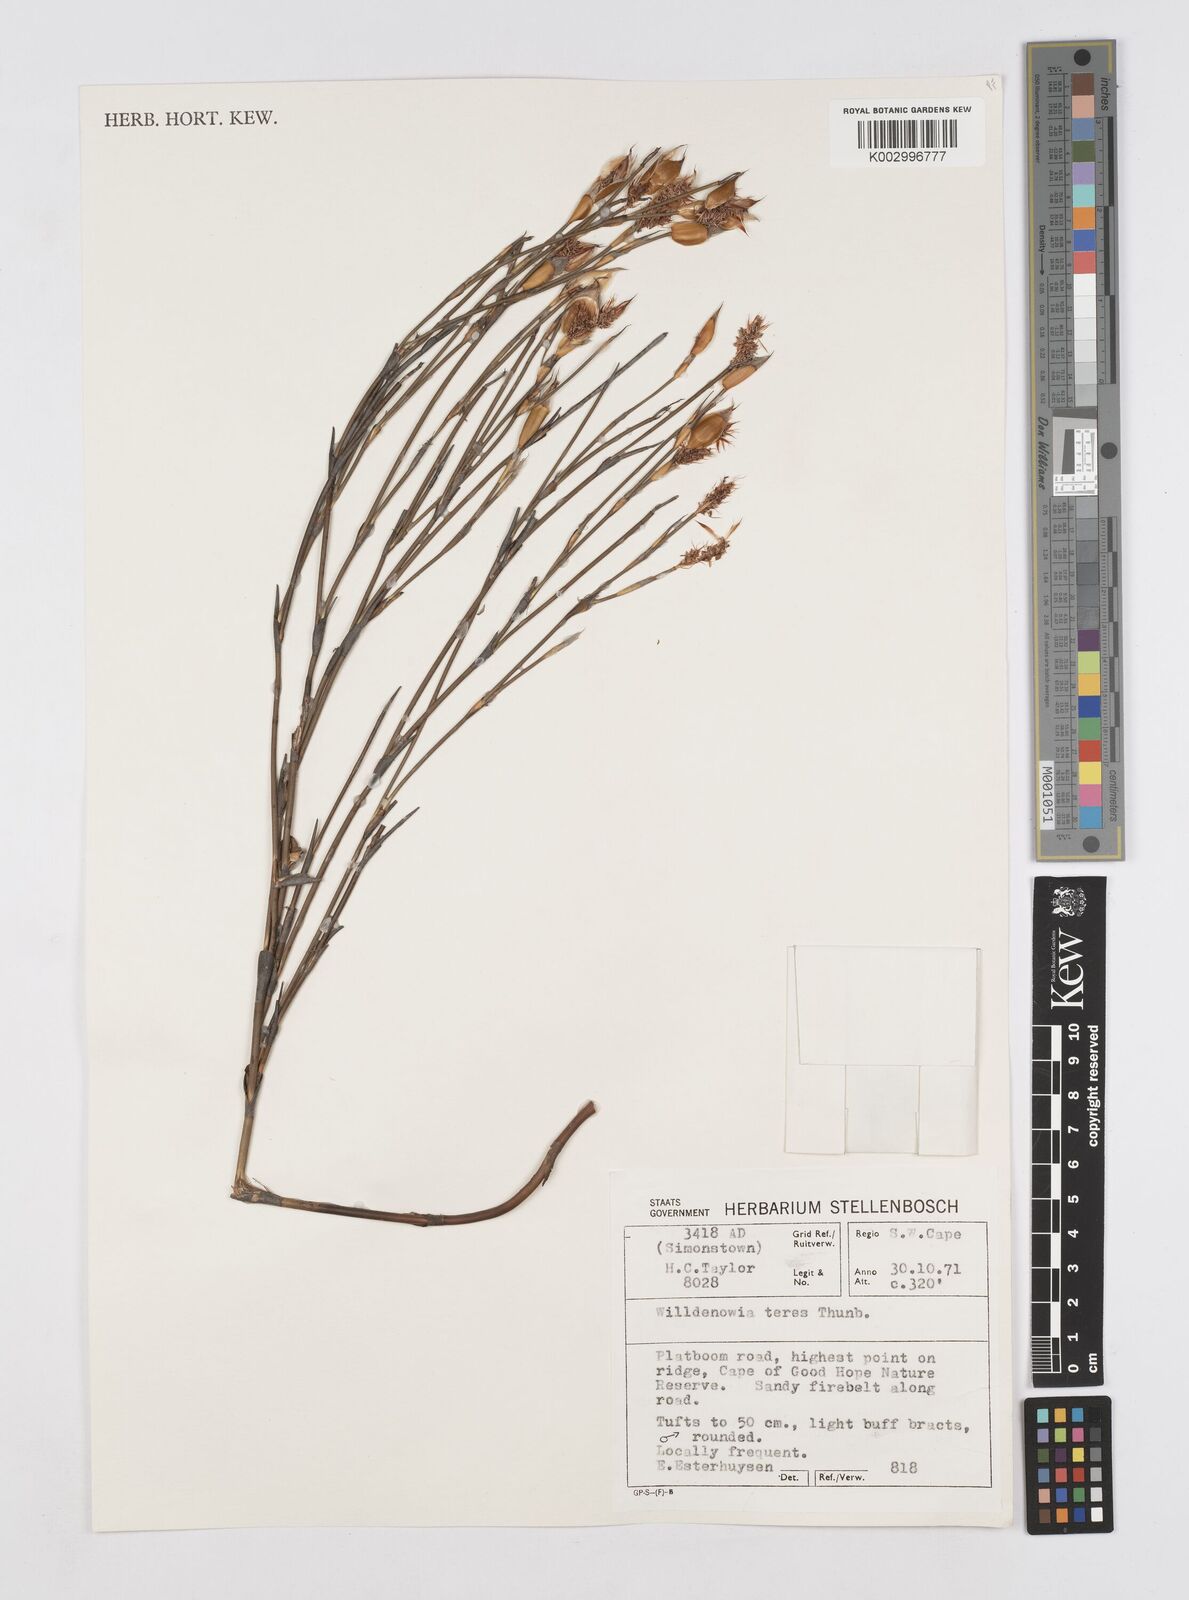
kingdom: Plantae
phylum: Tracheophyta
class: Liliopsida
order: Poales
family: Restionaceae
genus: Willdenowia
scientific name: Willdenowia teres
